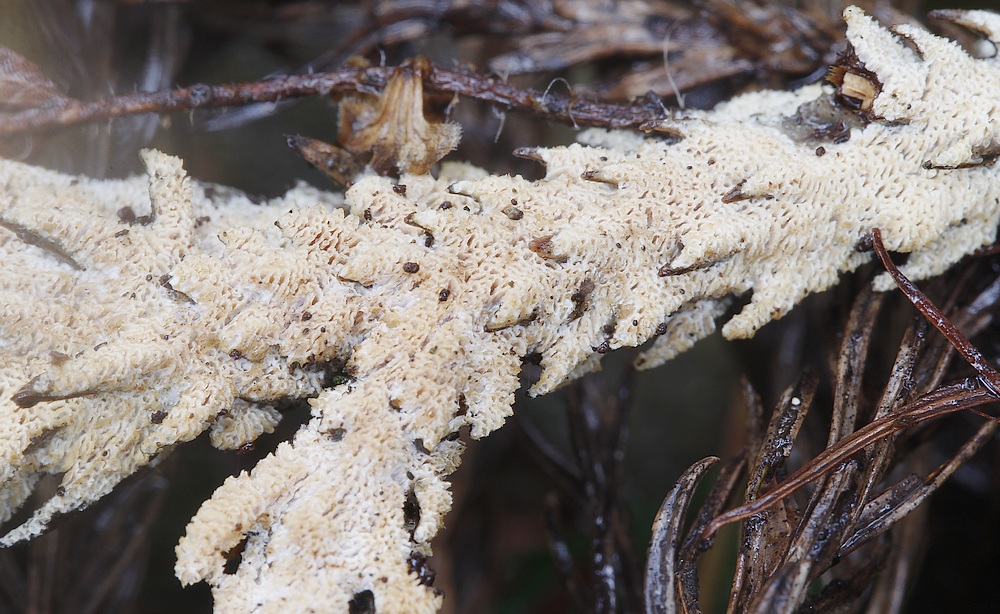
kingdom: Fungi
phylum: Basidiomycota
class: Agaricomycetes
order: Hymenochaetales
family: Schizoporaceae
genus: Xylodon
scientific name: Xylodon subtropicus
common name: labyrint-tandsvamp
